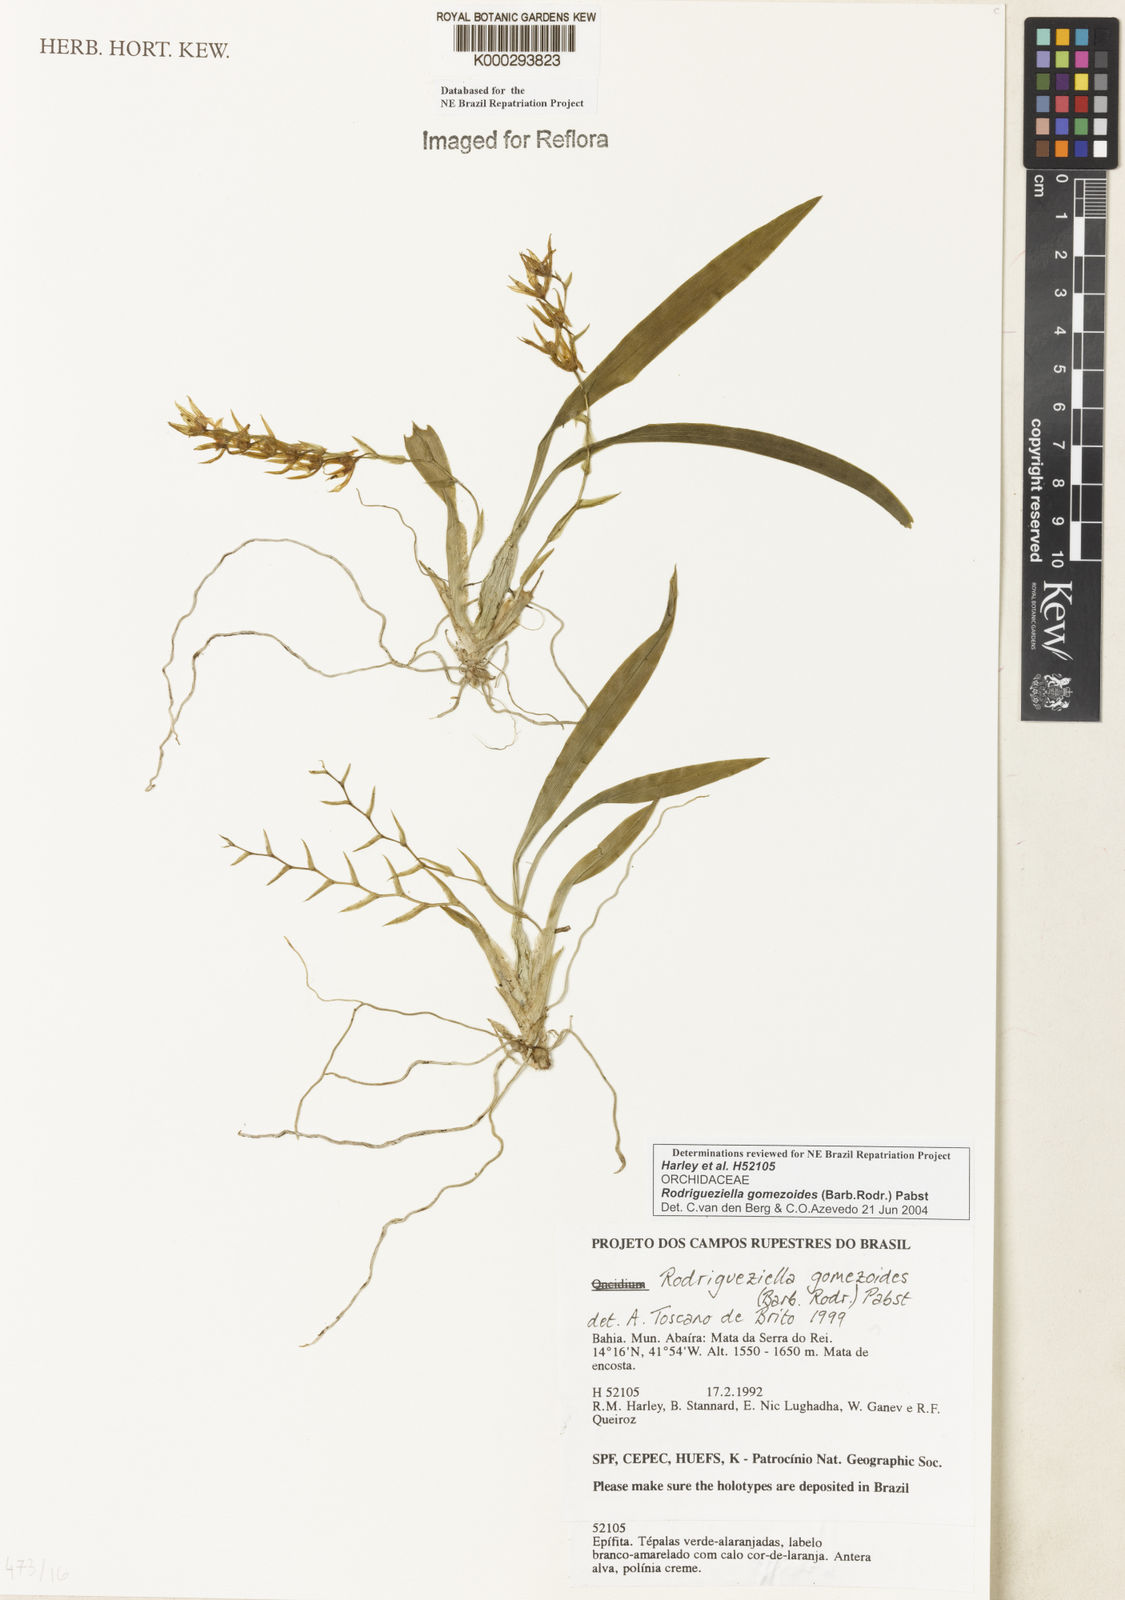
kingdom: Plantae
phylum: Tracheophyta
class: Liliopsida
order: Asparagales
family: Orchidaceae
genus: Gomesa
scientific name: Gomesa gomezoides
